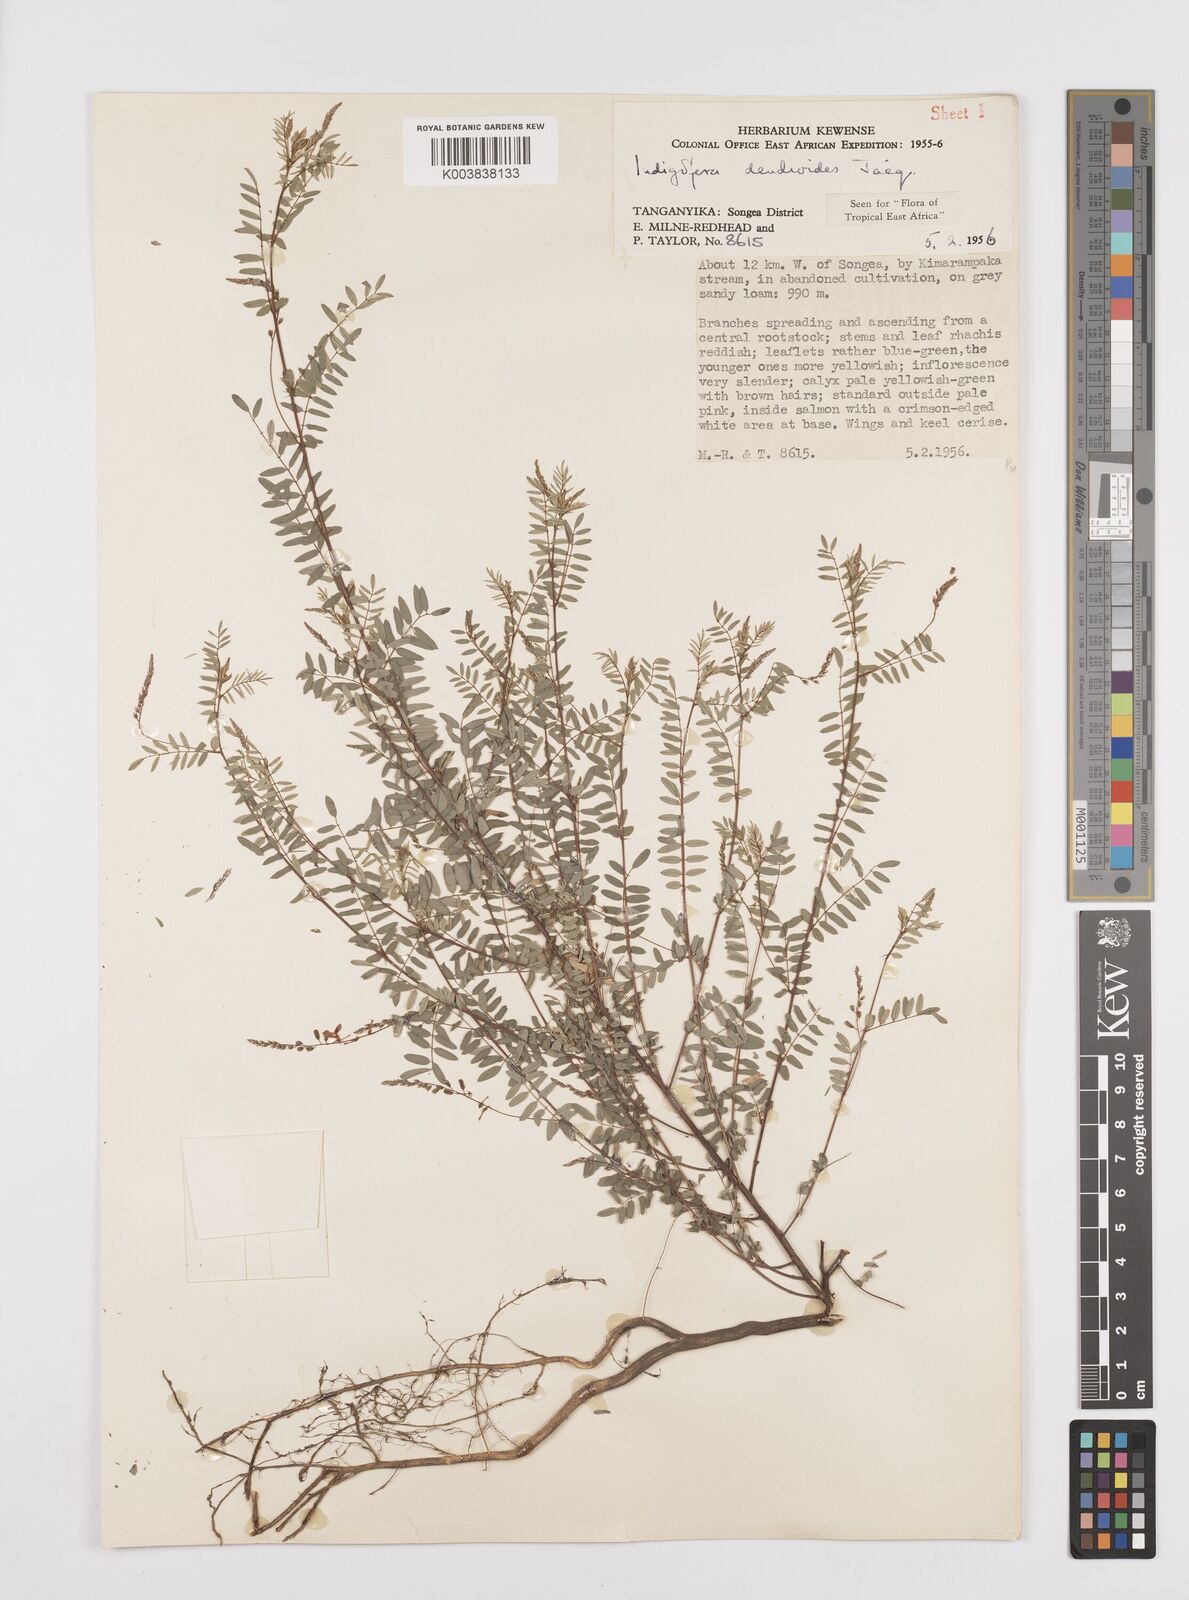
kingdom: Plantae
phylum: Tracheophyta
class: Magnoliopsida
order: Fabales
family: Fabaceae
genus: Indigofera
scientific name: Indigofera dendroides
